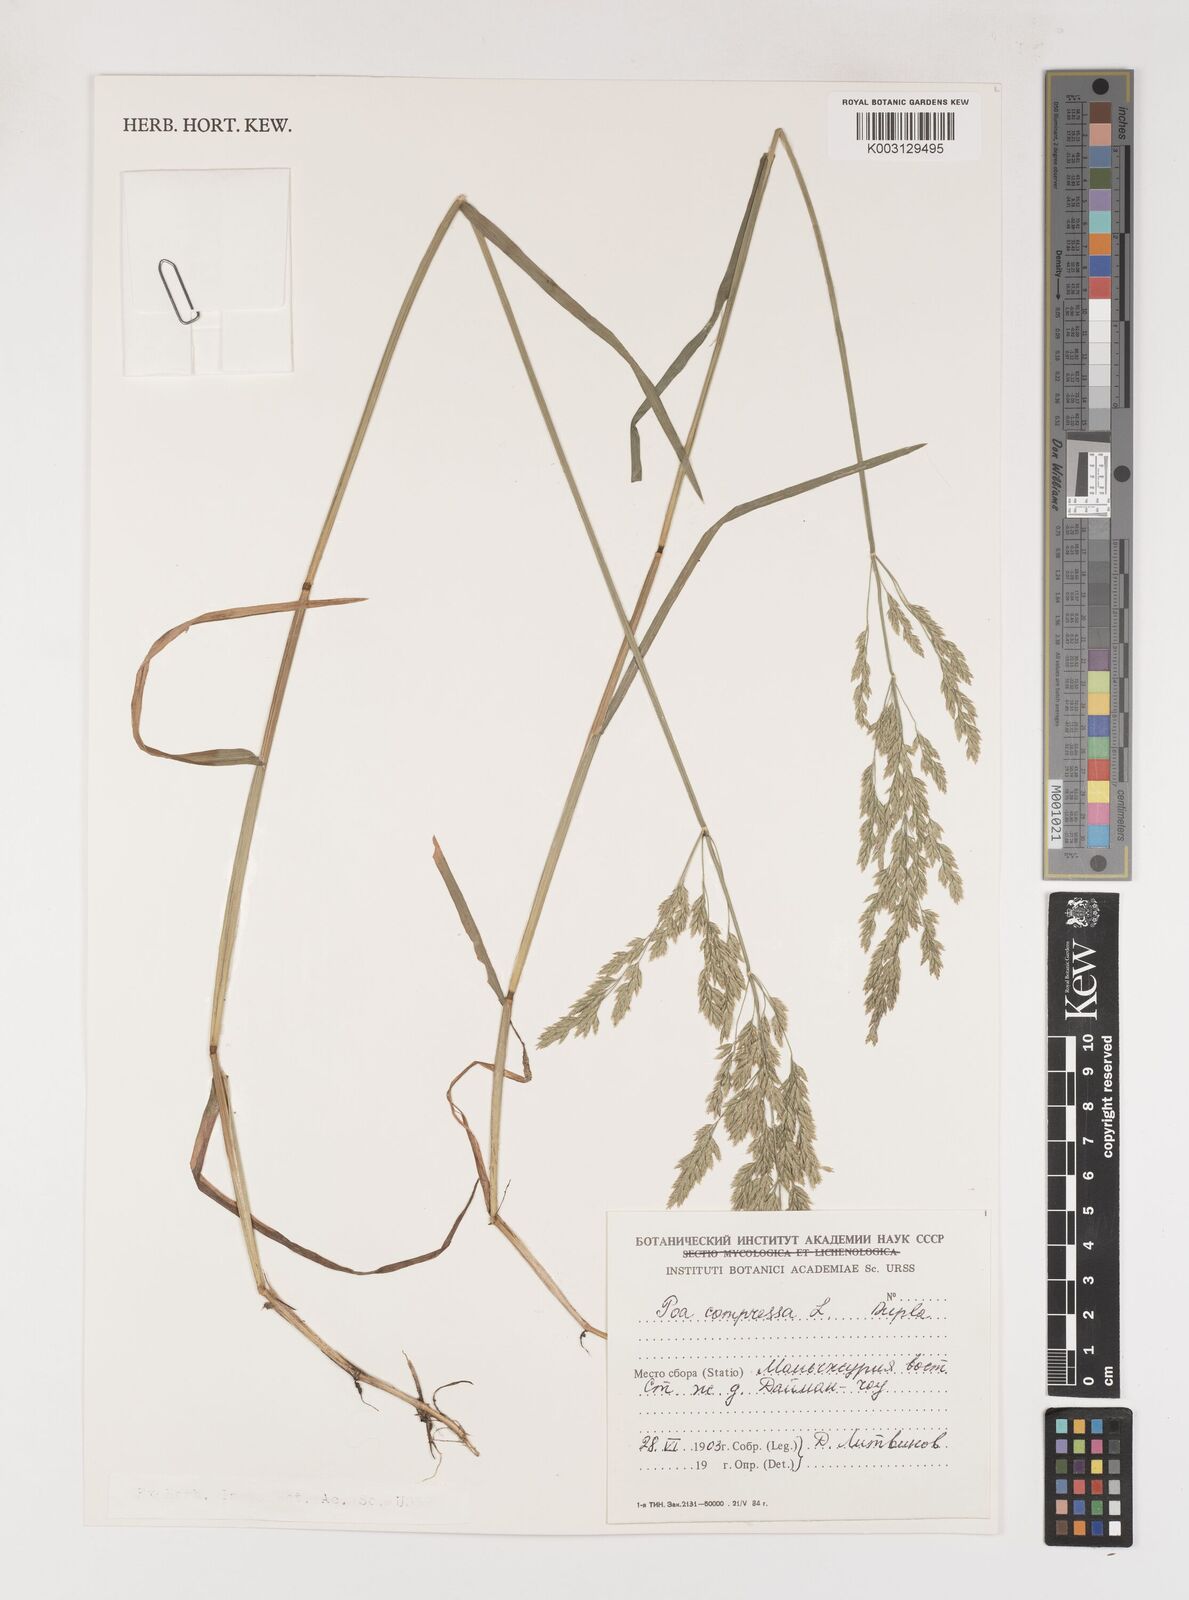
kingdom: Plantae
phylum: Tracheophyta
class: Liliopsida
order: Poales
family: Poaceae
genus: Poa
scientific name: Poa compressa
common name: Canada bluegrass
